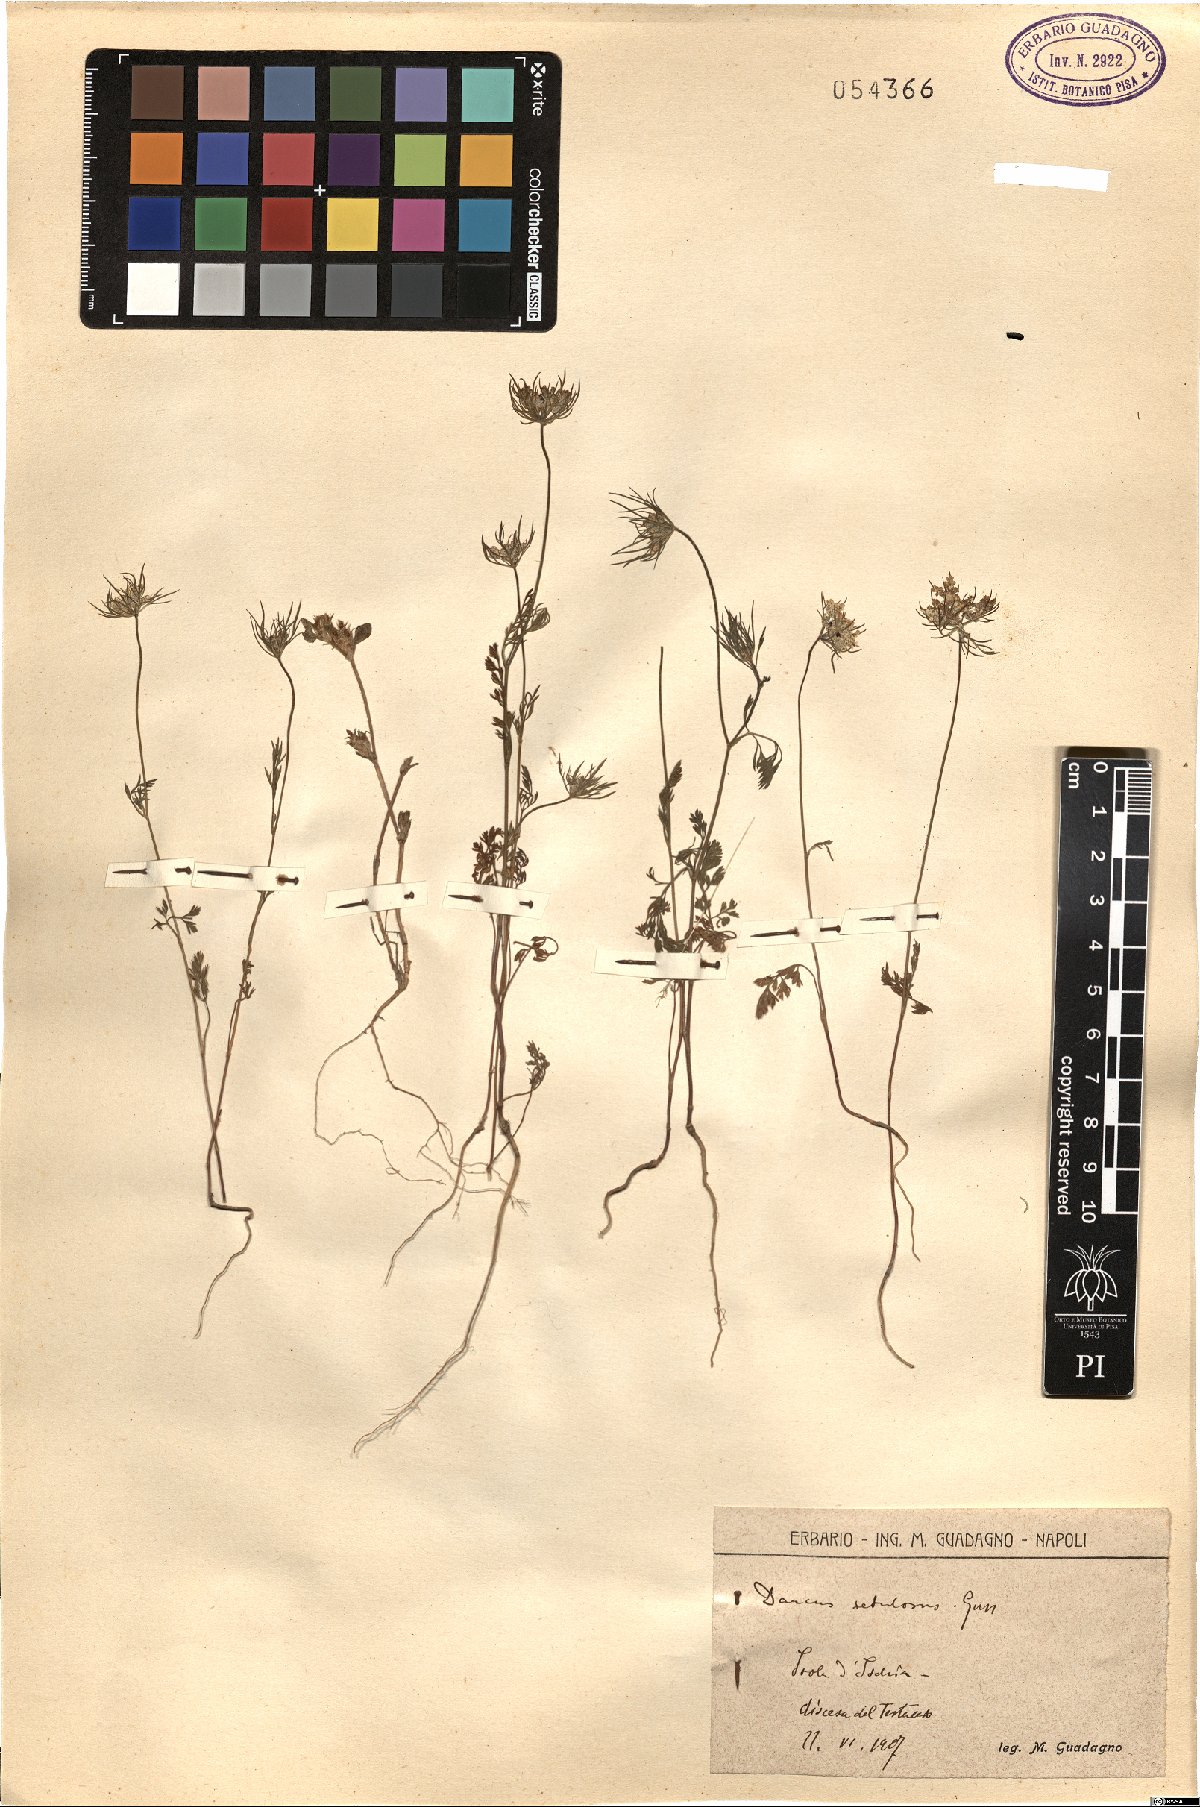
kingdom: Plantae
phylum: Tracheophyta
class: Magnoliopsida
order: Apiales
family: Apiaceae
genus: Daucus
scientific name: Daucus guttatus
